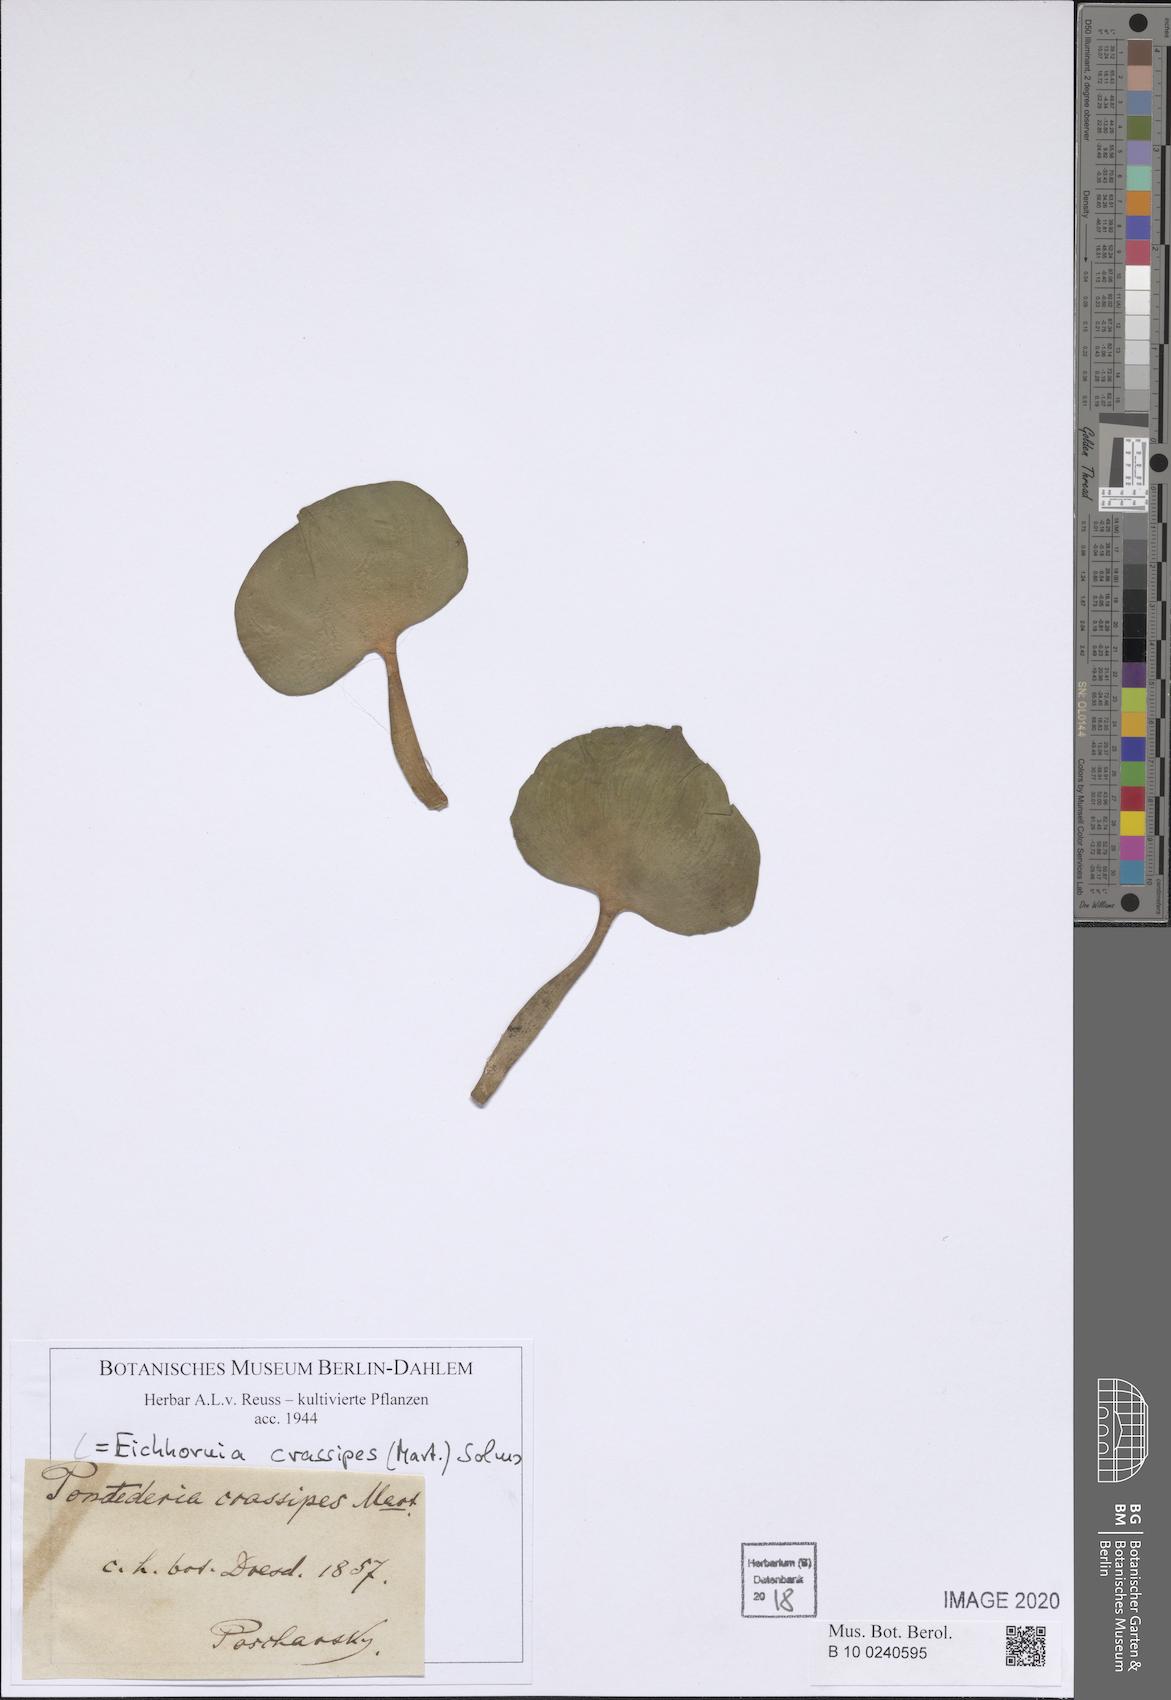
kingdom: Plantae
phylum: Tracheophyta
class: Liliopsida
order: Commelinales
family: Pontederiaceae
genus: Pontederia
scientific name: Pontederia crassipes
